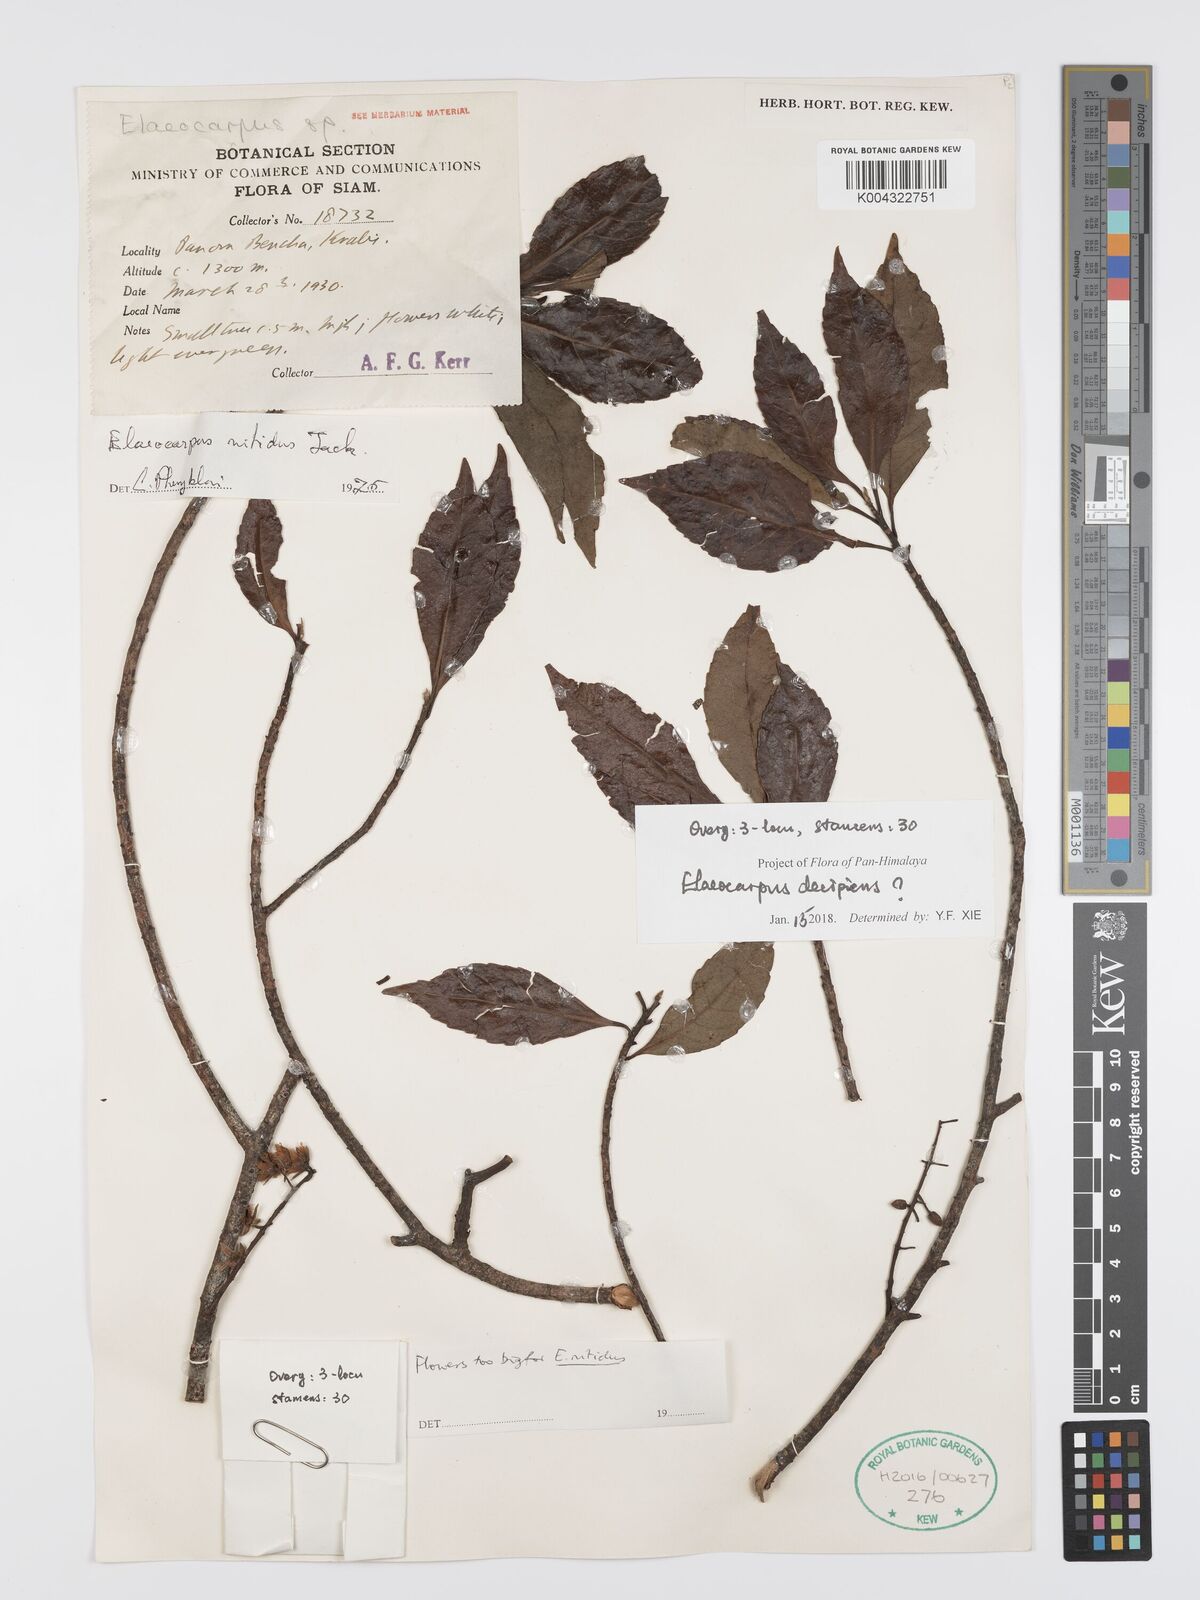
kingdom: Plantae
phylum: Tracheophyta
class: Magnoliopsida
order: Oxalidales
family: Elaeocarpaceae
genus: Elaeocarpus
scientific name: Elaeocarpus sylvestris
